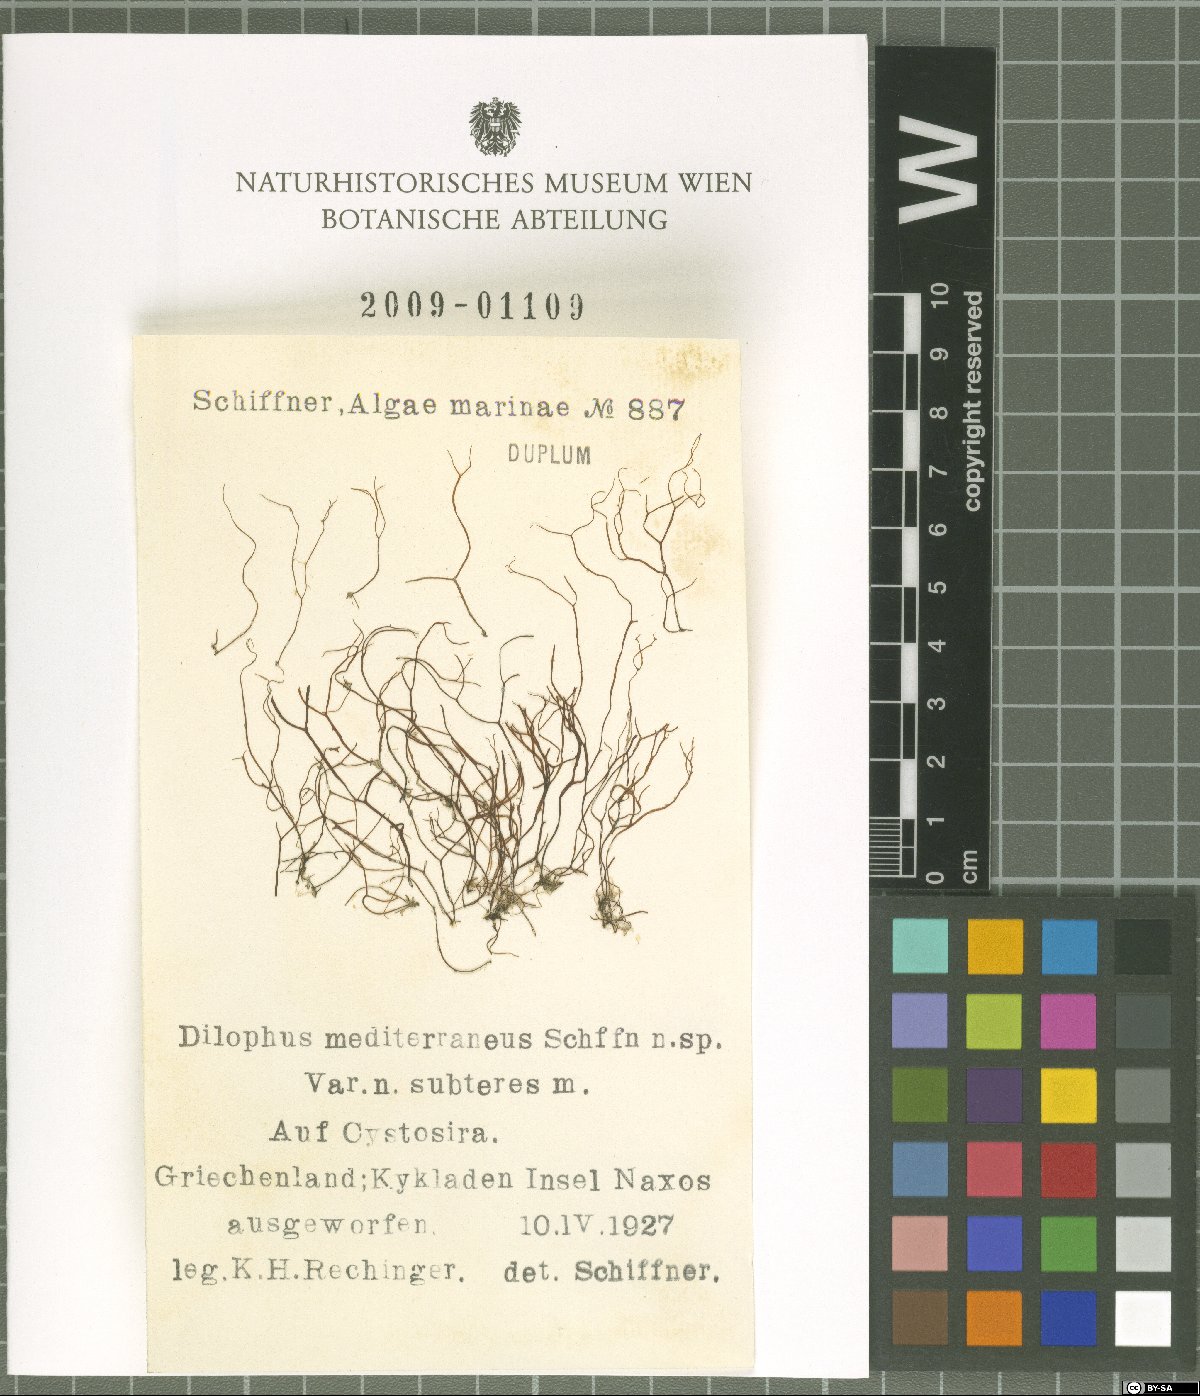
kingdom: Chromista
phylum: Ochrophyta
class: Phaeophyceae
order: Dictyotales
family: Dictyotaceae
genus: Dictyota
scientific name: Dictyota
